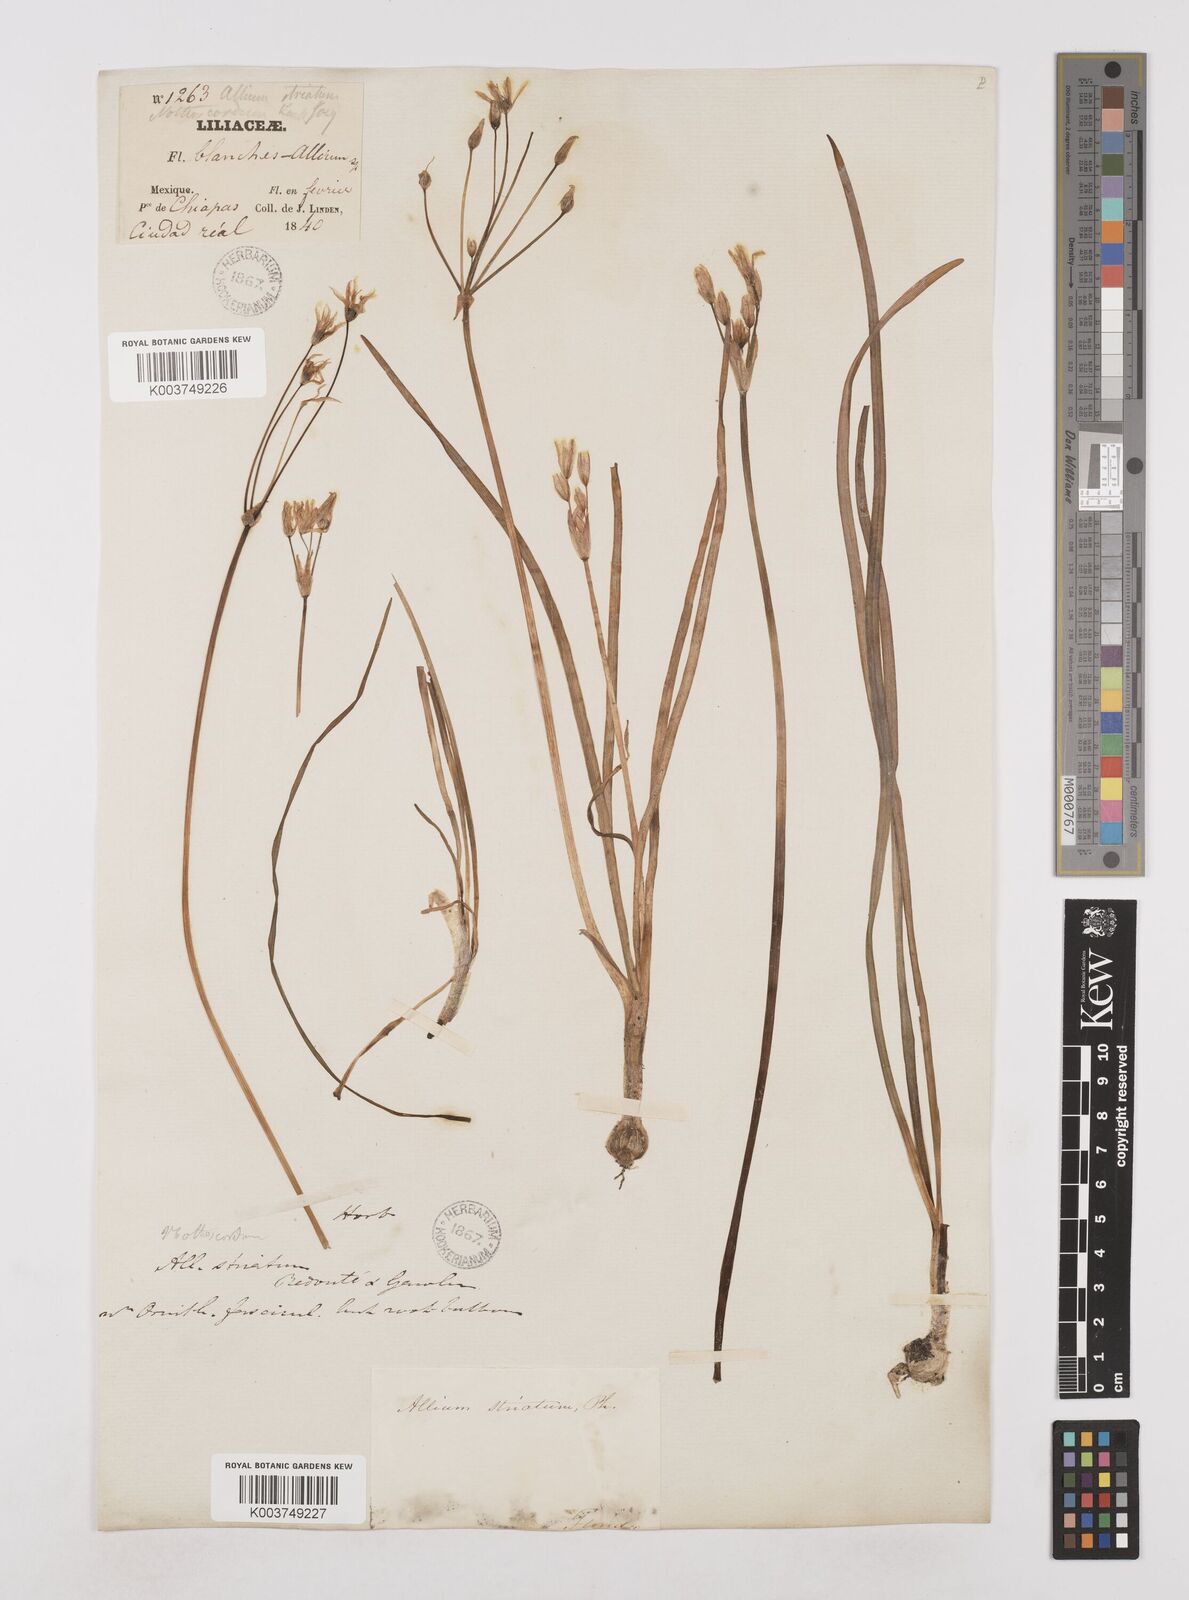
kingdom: Plantae
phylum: Tracheophyta
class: Liliopsida
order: Asparagales
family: Amaryllidaceae
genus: Nothoscordum
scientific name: Nothoscordum bivalve
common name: Crow-poison
